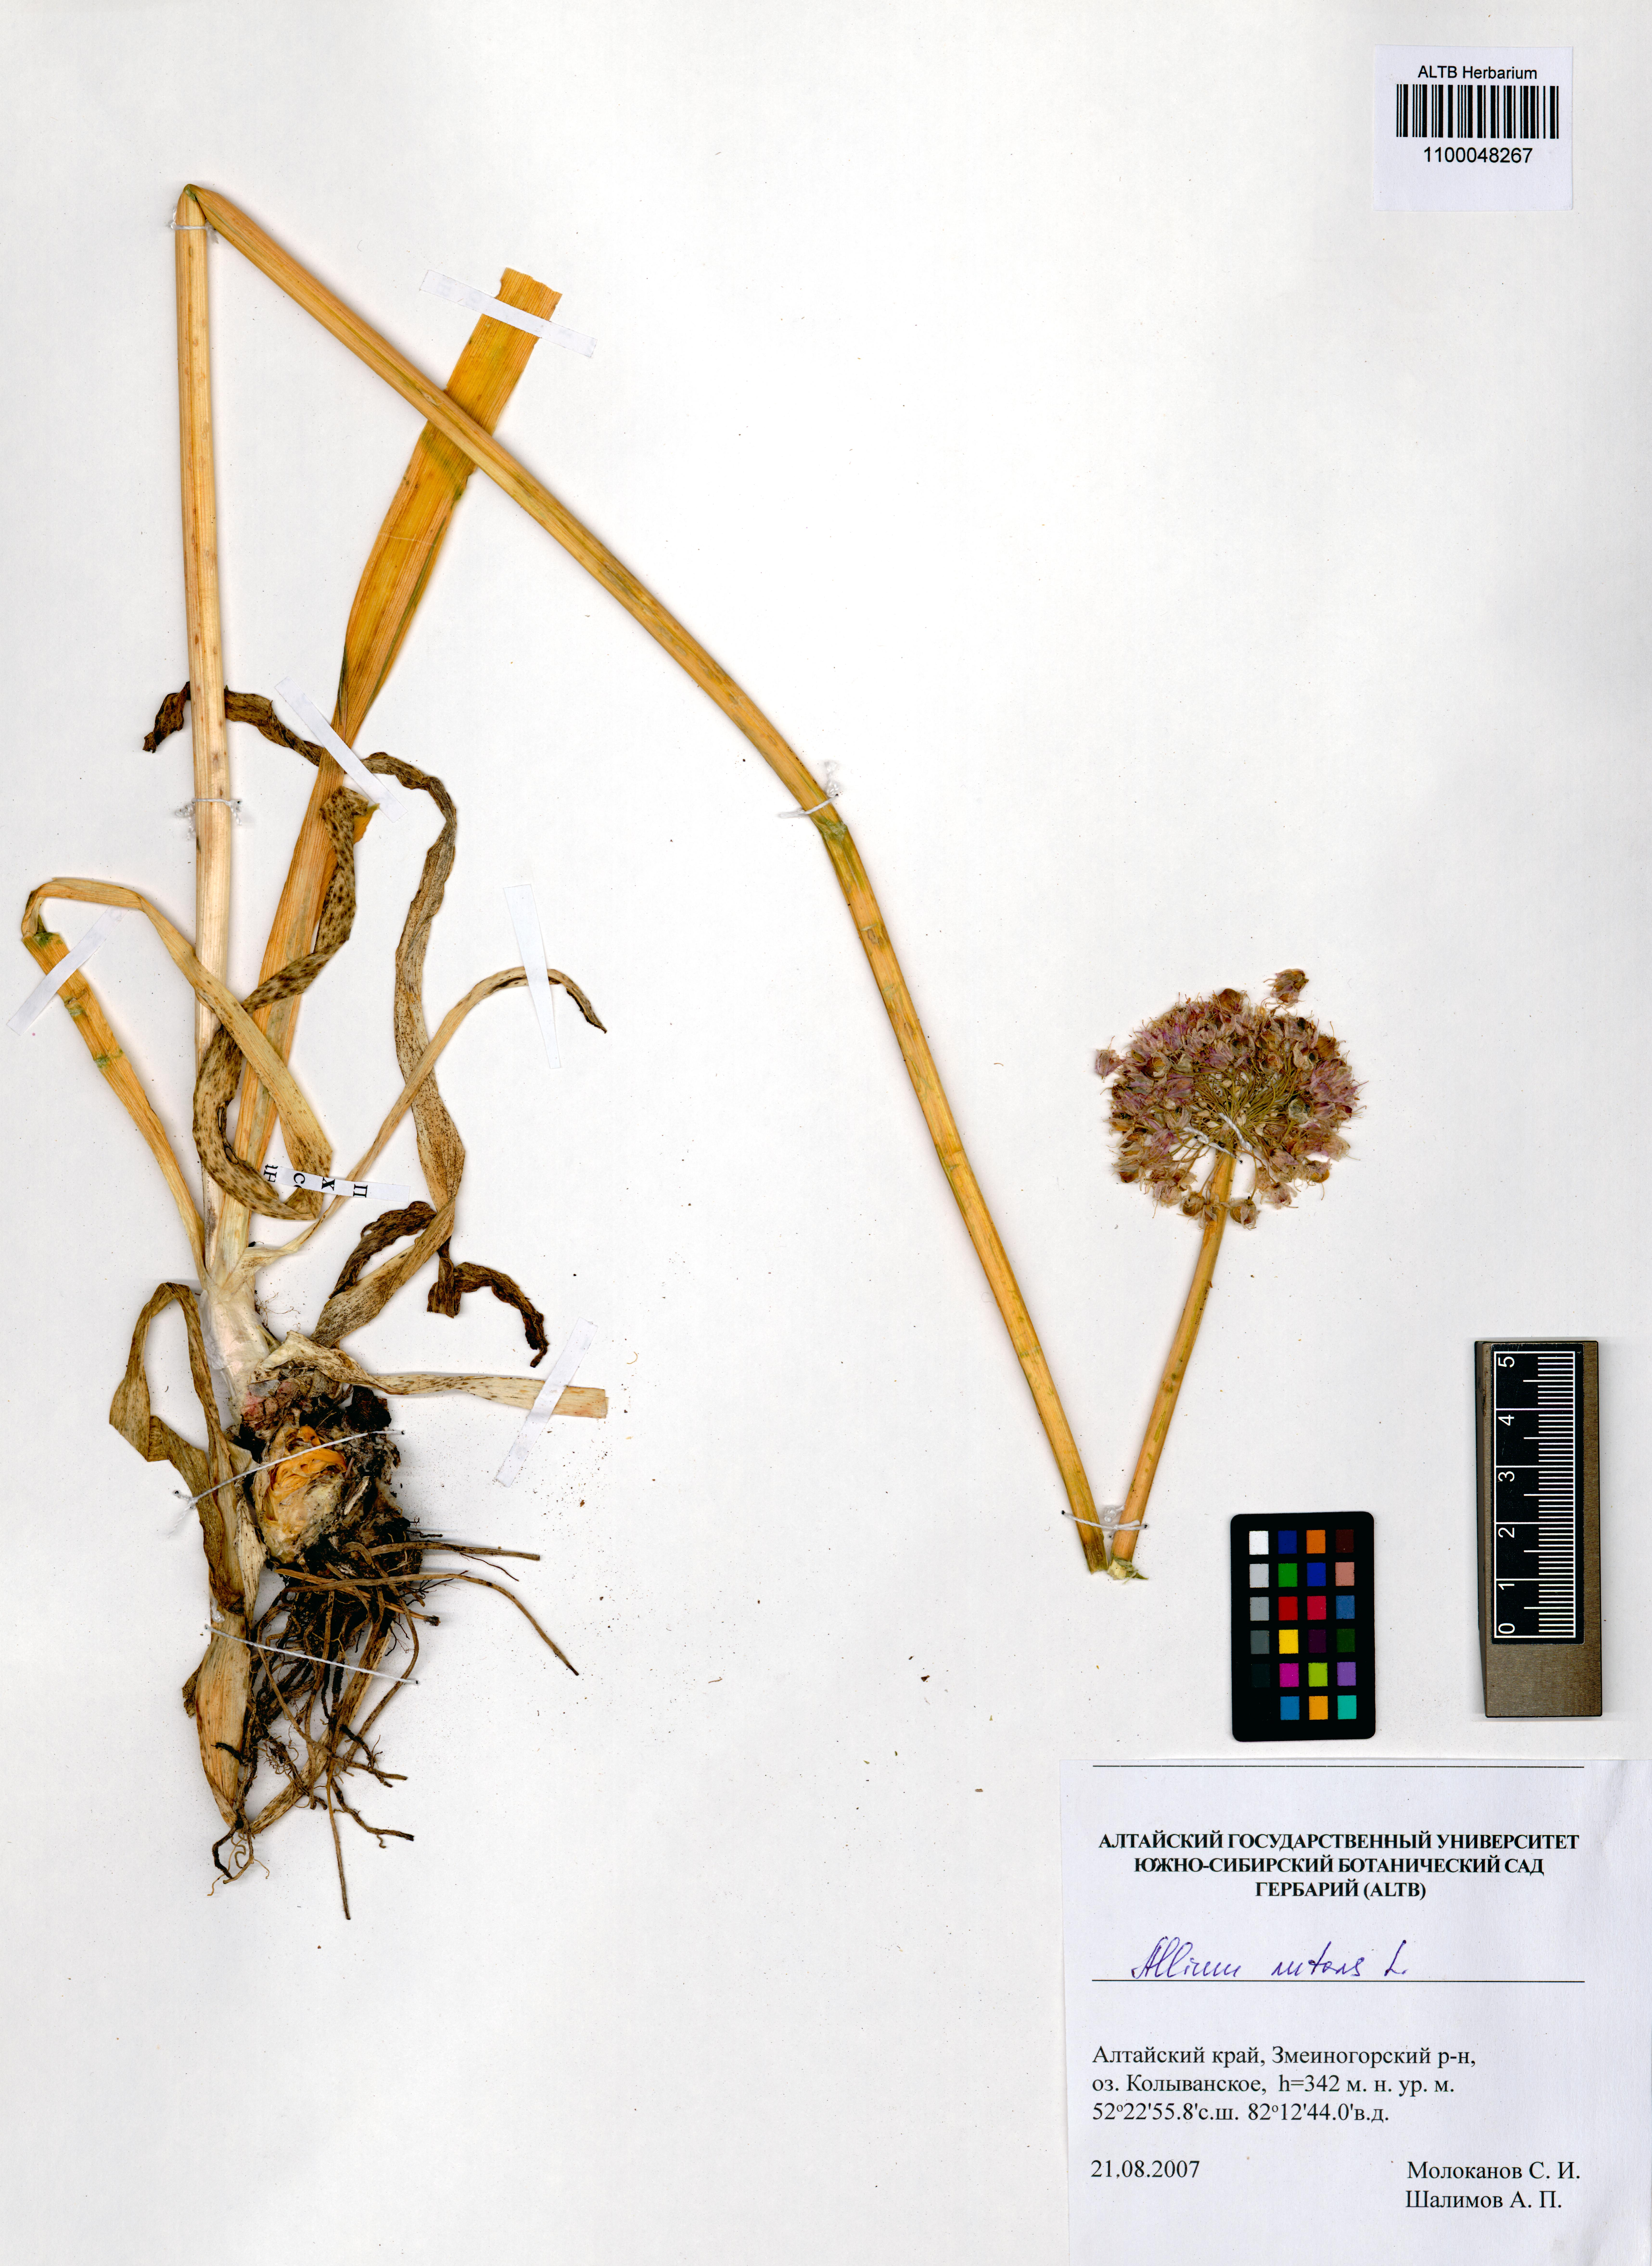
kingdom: Plantae
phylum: Tracheophyta
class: Liliopsida
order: Asparagales
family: Amaryllidaceae
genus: Allium
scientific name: Allium nutans
